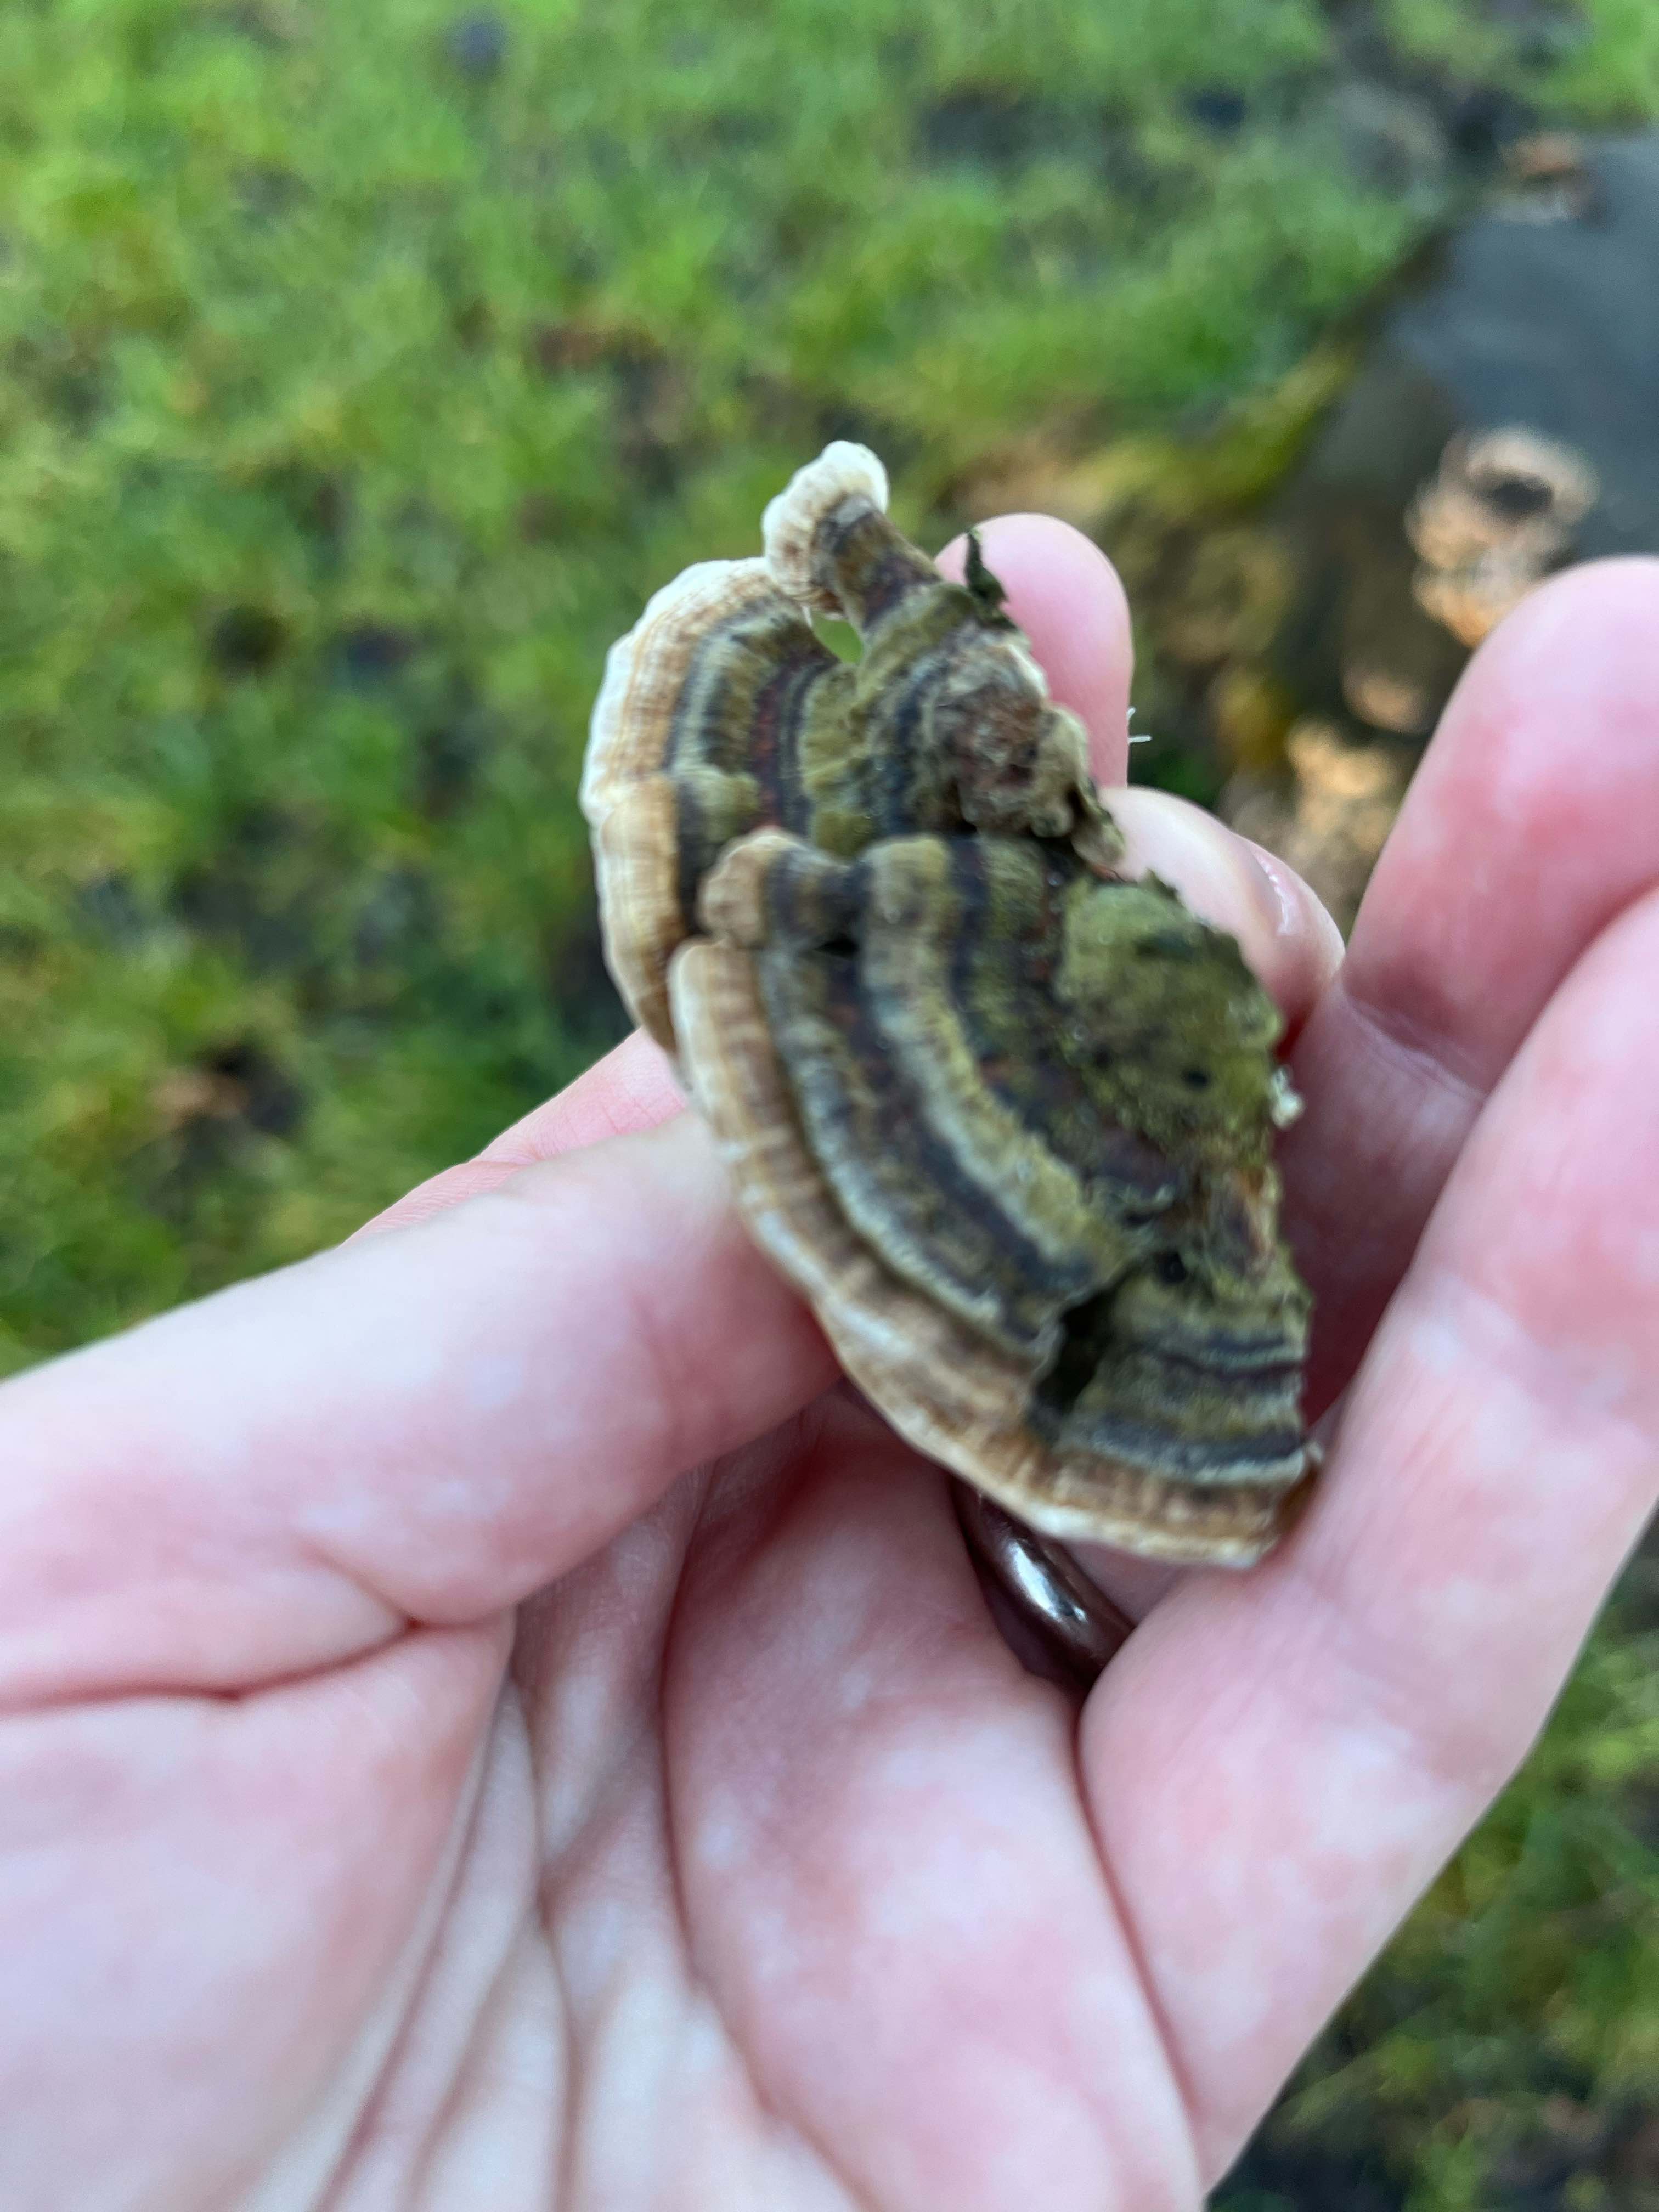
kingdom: Fungi
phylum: Basidiomycota
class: Agaricomycetes
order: Polyporales
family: Polyporaceae
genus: Trametes
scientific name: Trametes versicolor
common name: broget læderporesvamp
